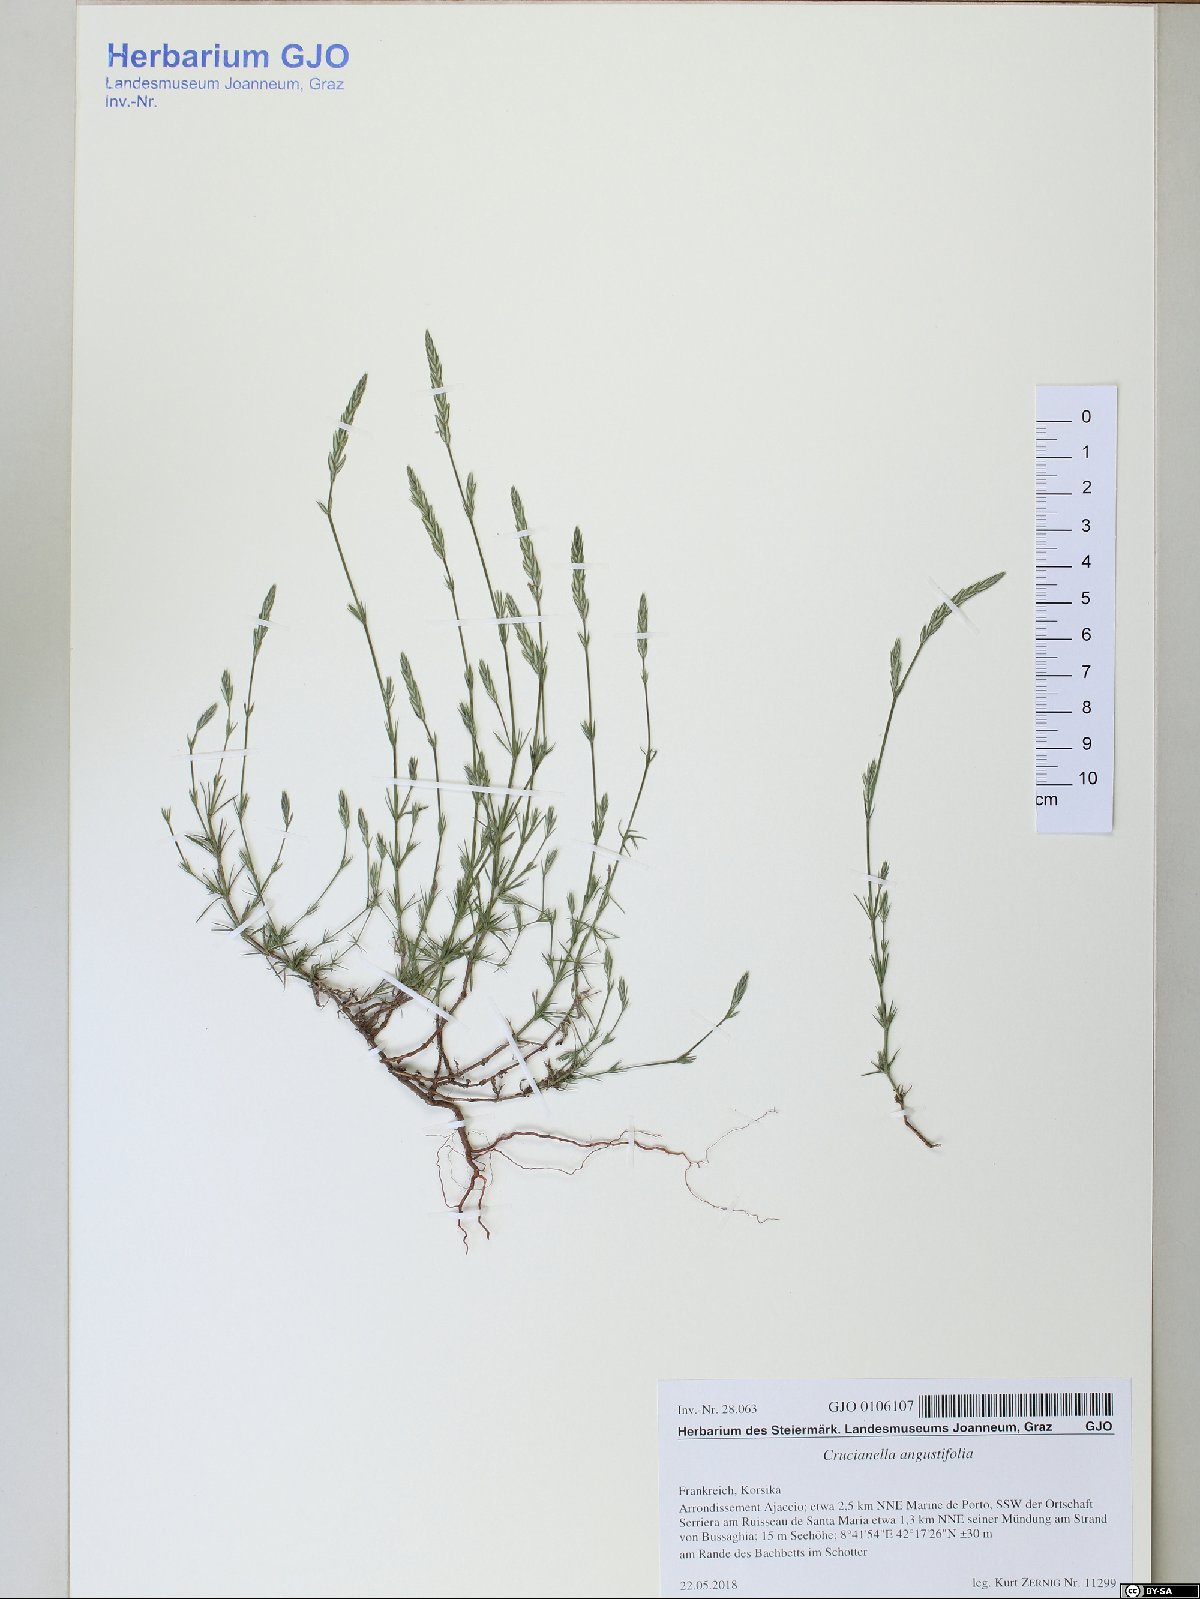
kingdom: Plantae
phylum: Tracheophyta
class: Magnoliopsida
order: Gentianales
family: Rubiaceae
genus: Crucianella
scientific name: Crucianella angustifolia
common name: Narrowleaf crucianella
